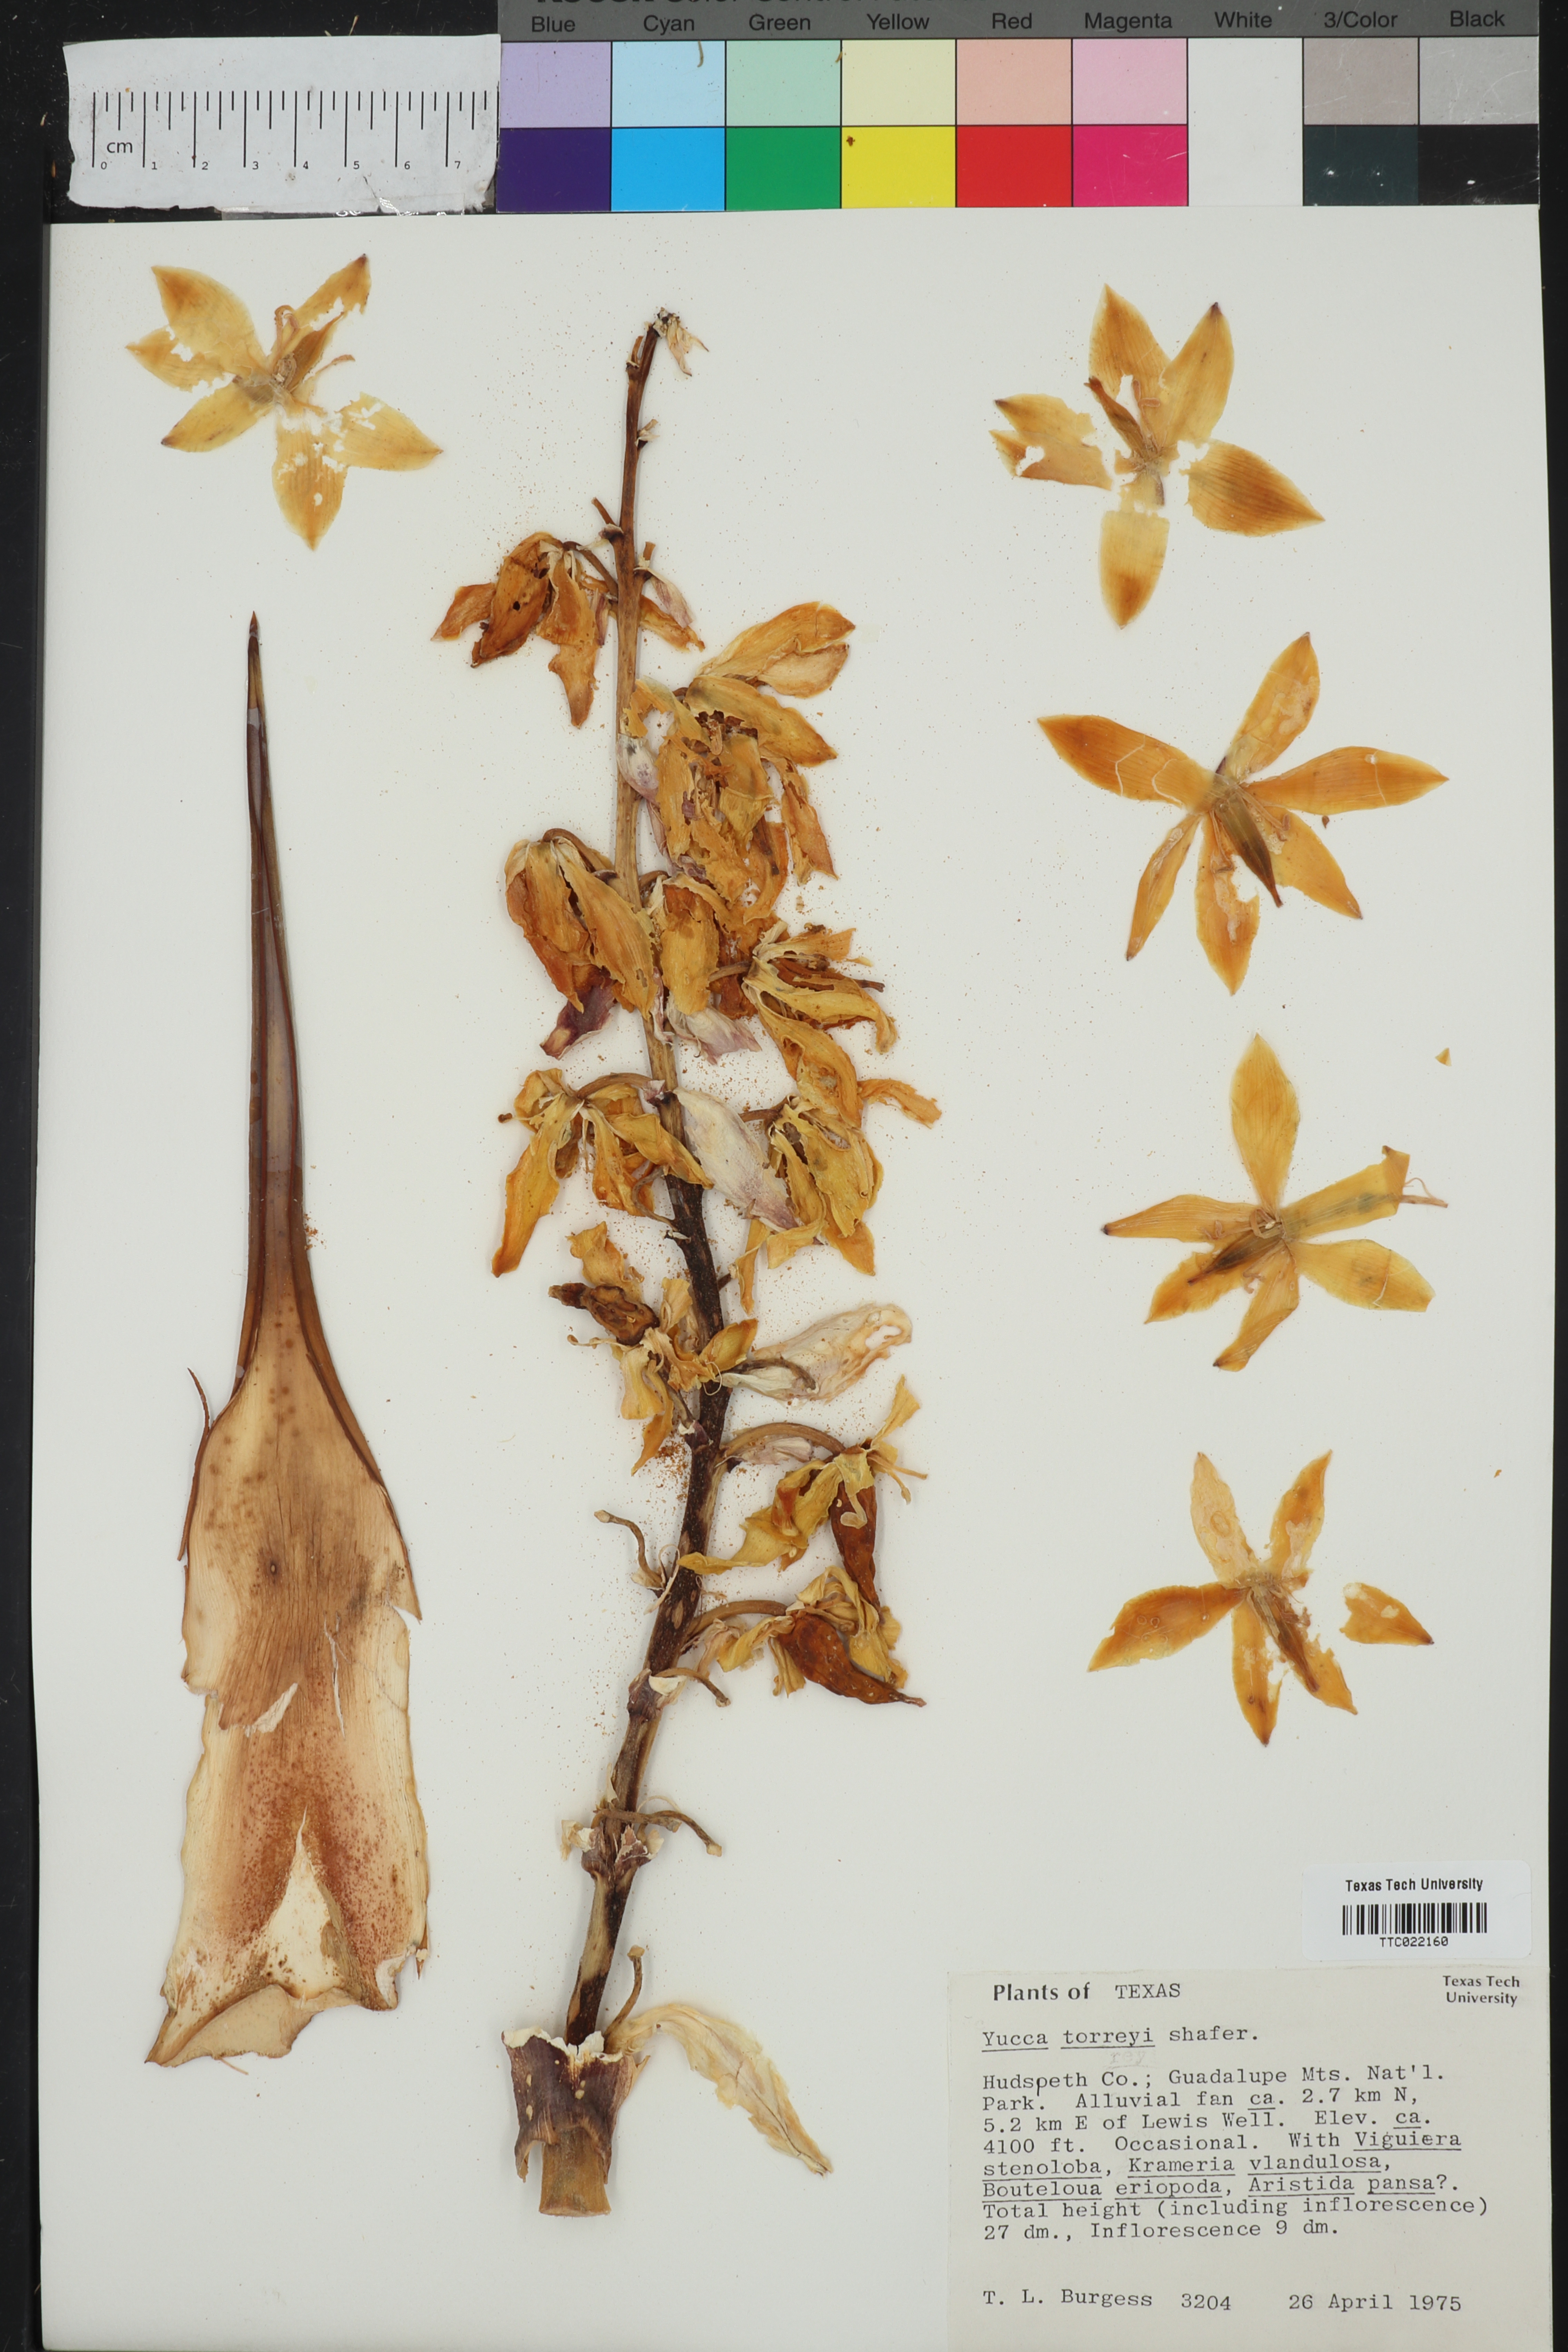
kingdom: Plantae
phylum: Tracheophyta
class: Liliopsida
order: Asparagales
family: Asparagaceae
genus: Yucca
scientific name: Yucca treculiana
